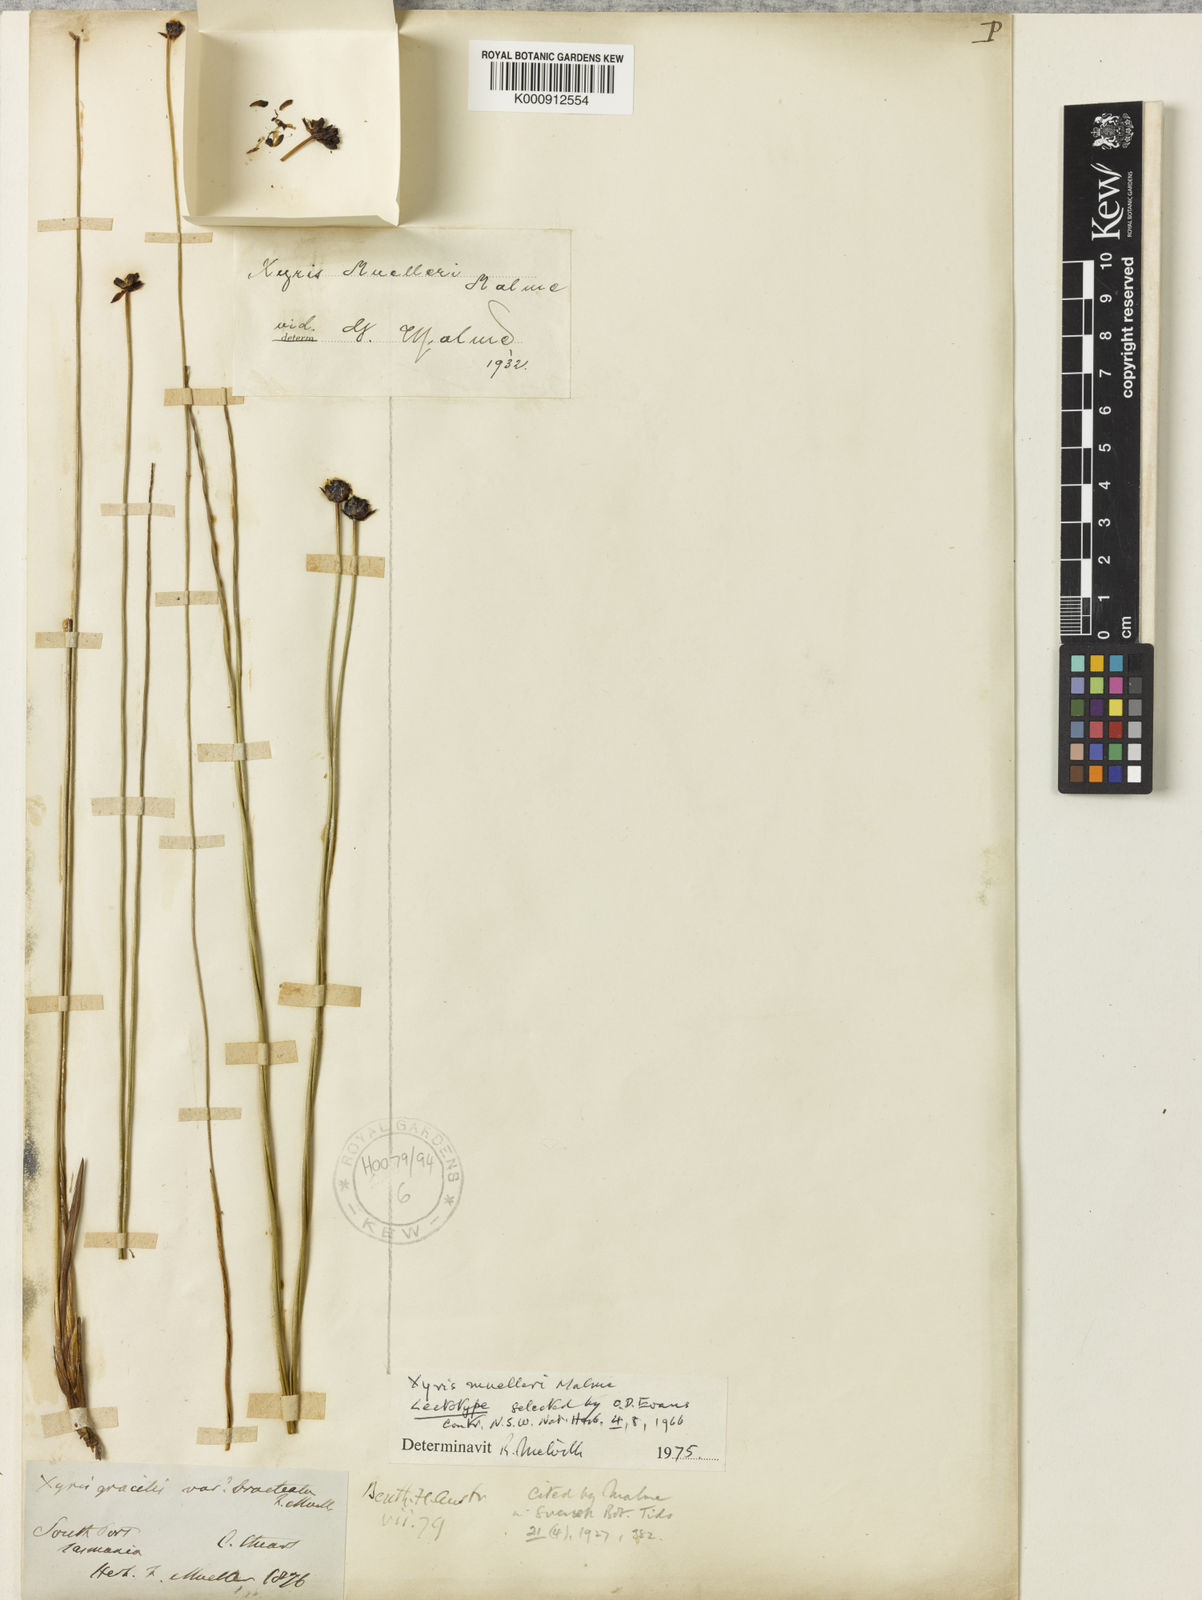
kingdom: Plantae
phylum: Tracheophyta
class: Liliopsida
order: Poales
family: Xyridaceae
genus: Xyris
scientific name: Xyris muelleri
